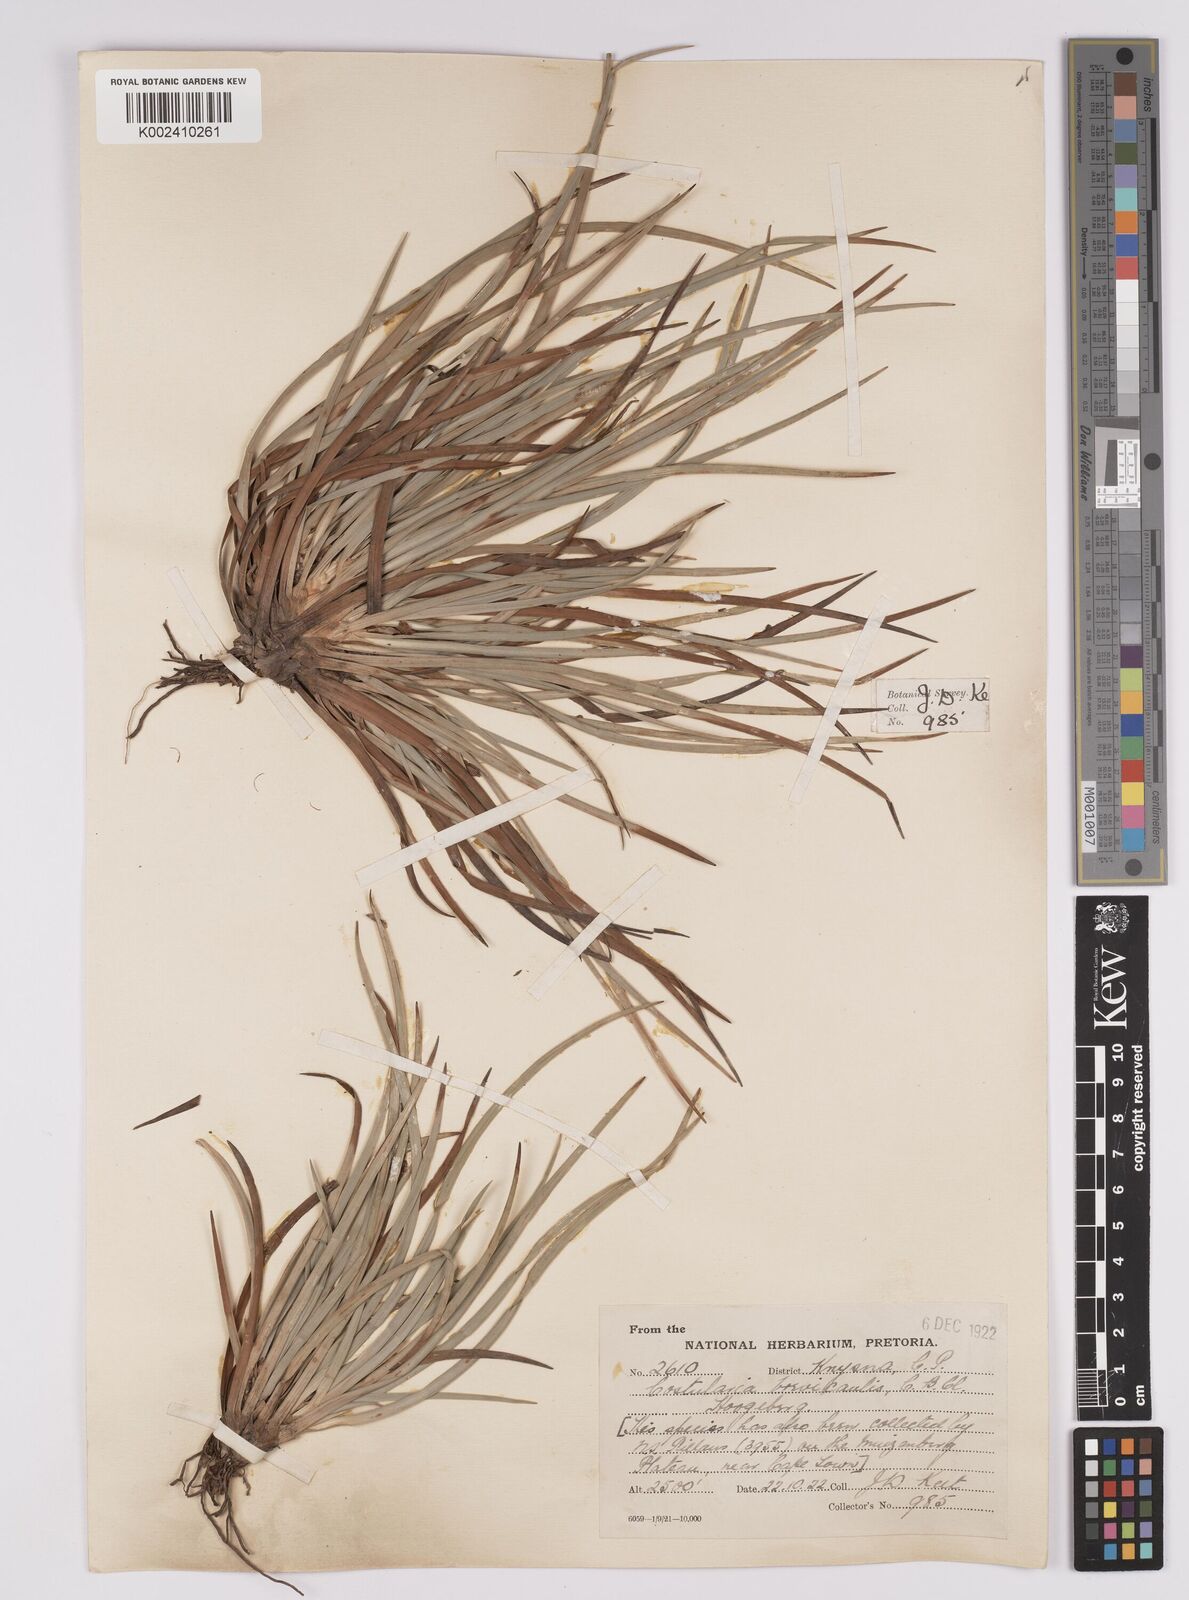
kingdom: Plantae
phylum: Tracheophyta
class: Liliopsida
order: Poales
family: Cyperaceae
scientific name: Cyperaceae
